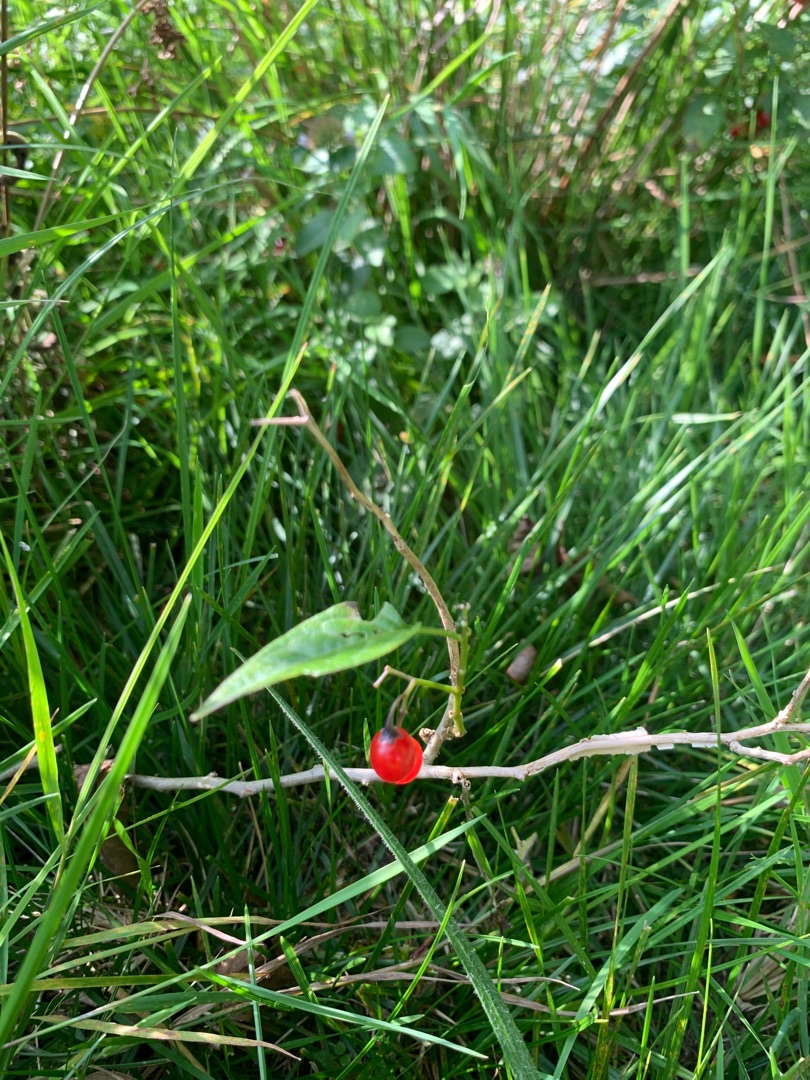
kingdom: Plantae
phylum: Tracheophyta
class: Magnoliopsida
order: Solanales
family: Solanaceae
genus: Solanum
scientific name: Solanum dulcamara
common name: Bittersød natskygge
